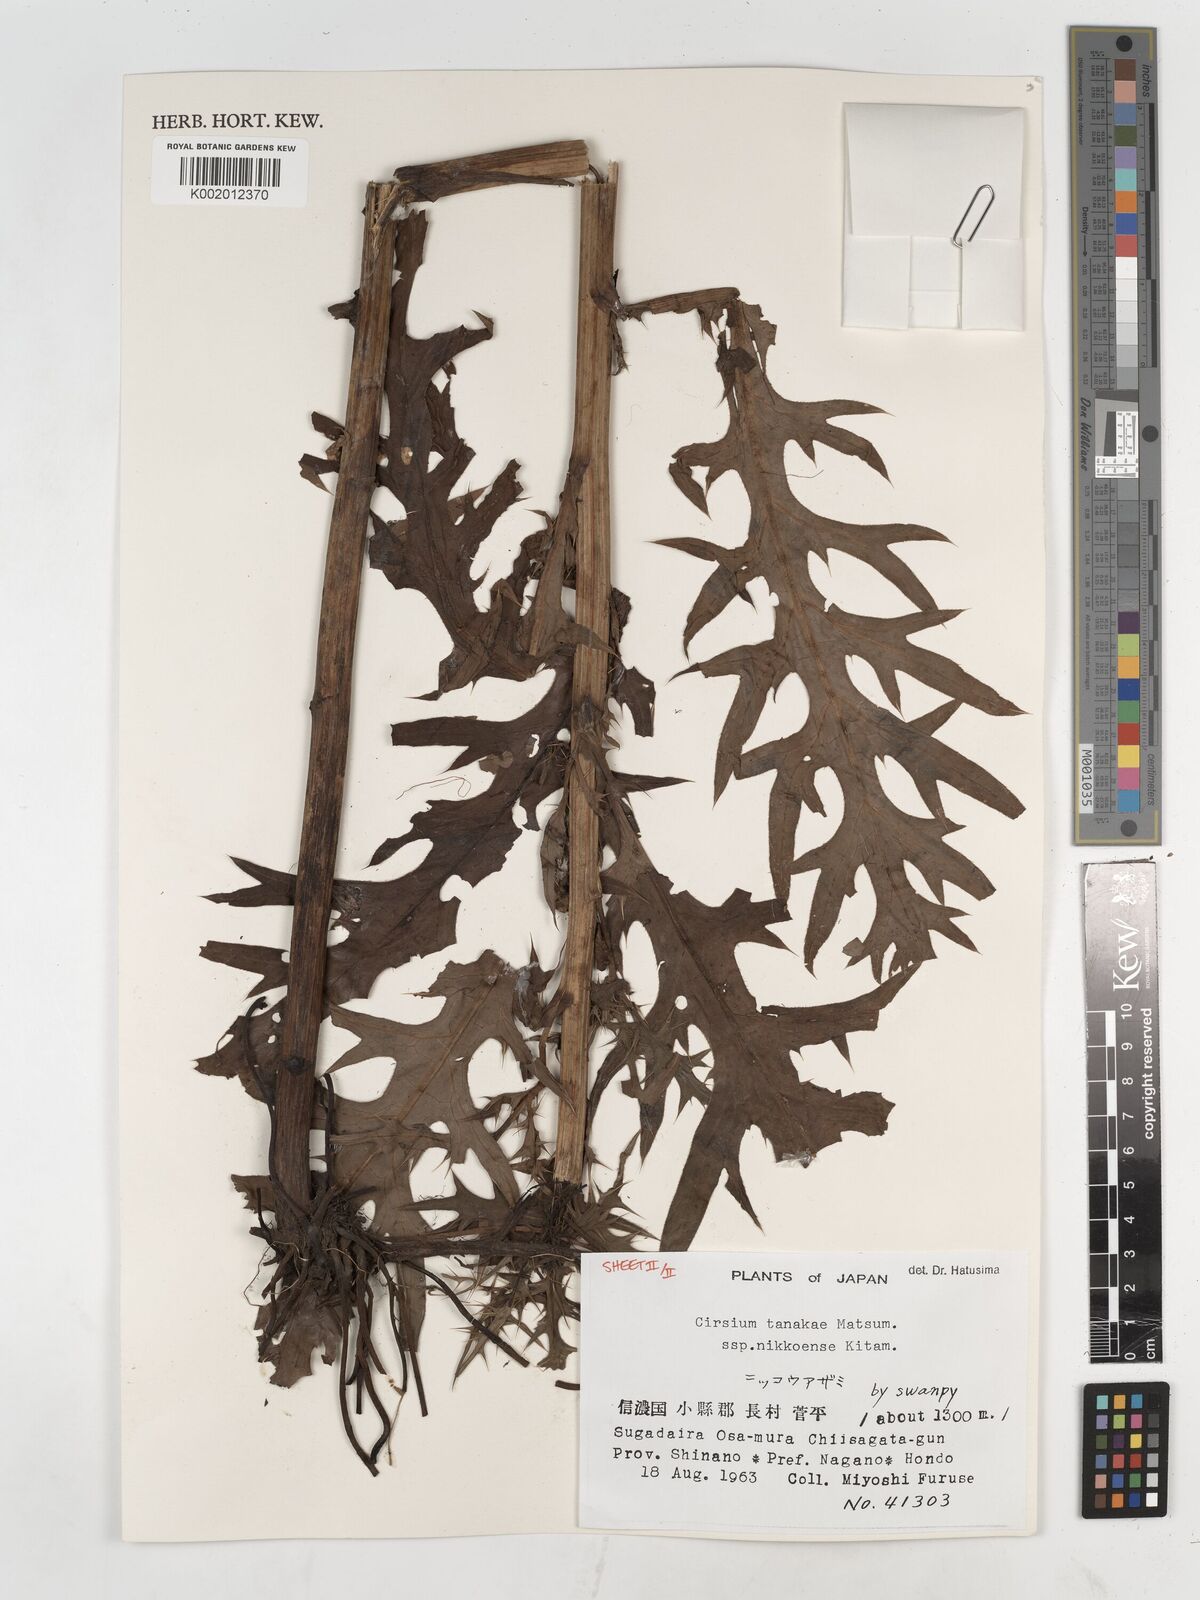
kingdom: Plantae
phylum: Tracheophyta
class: Magnoliopsida
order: Asterales
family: Asteraceae
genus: Cirsium
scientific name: Cirsium nipponicum
